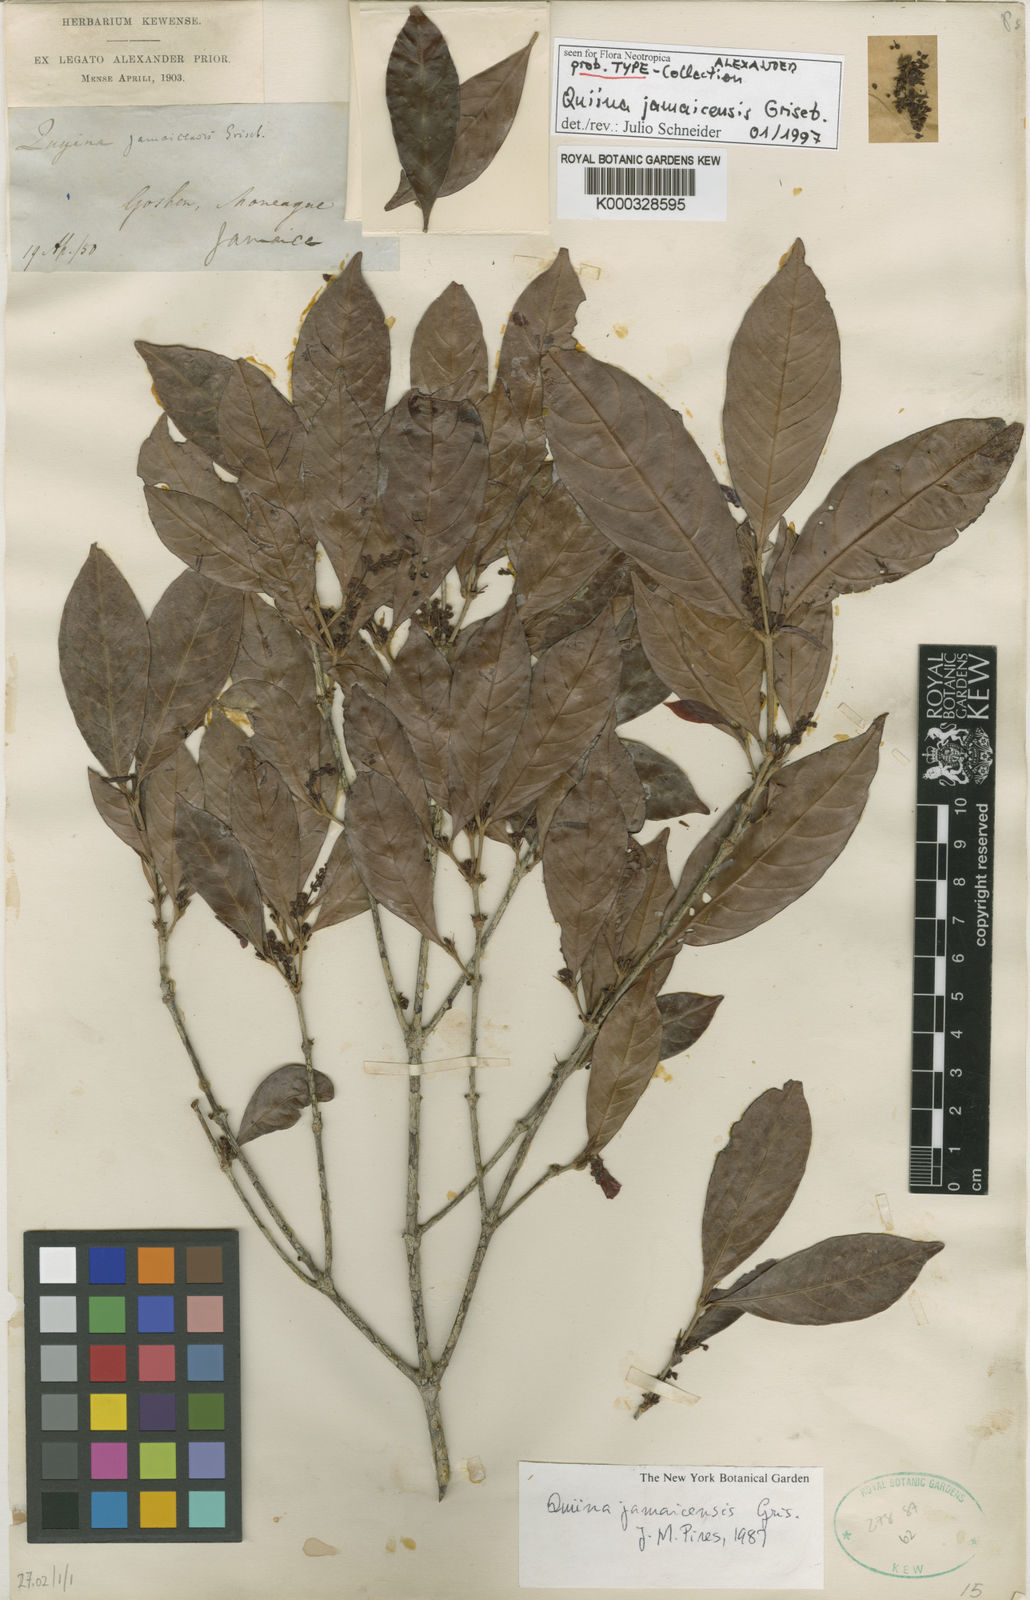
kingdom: Plantae
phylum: Tracheophyta
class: Magnoliopsida
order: Malpighiales
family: Quiinaceae
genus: Quiina
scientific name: Quiina jamaicensis
